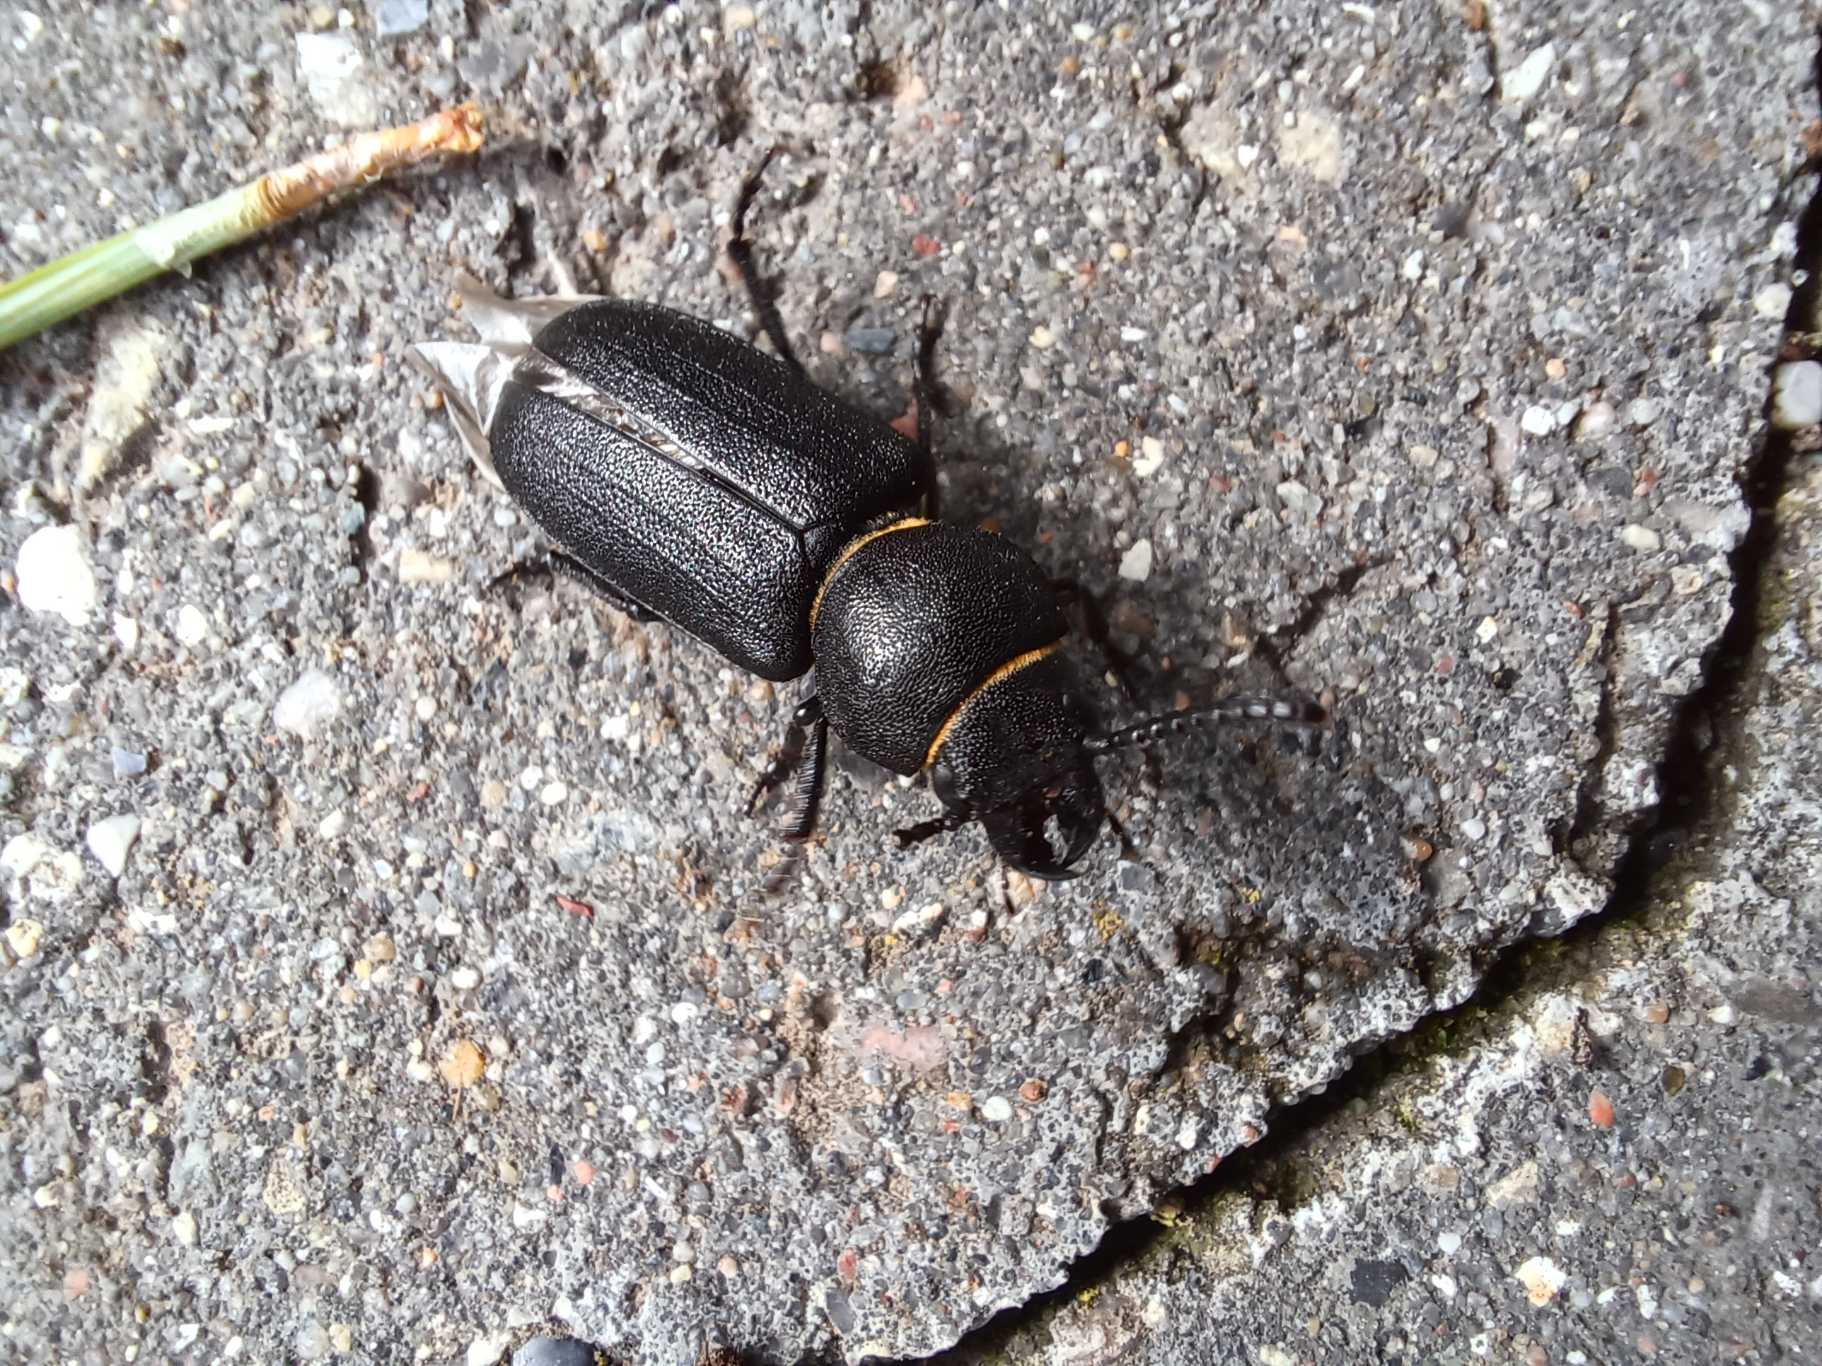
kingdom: Animalia
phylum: Arthropoda
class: Insecta
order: Coleoptera
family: Cerambycidae
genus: Spondylis
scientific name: Spondylis buprestoides
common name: Valsebuk
